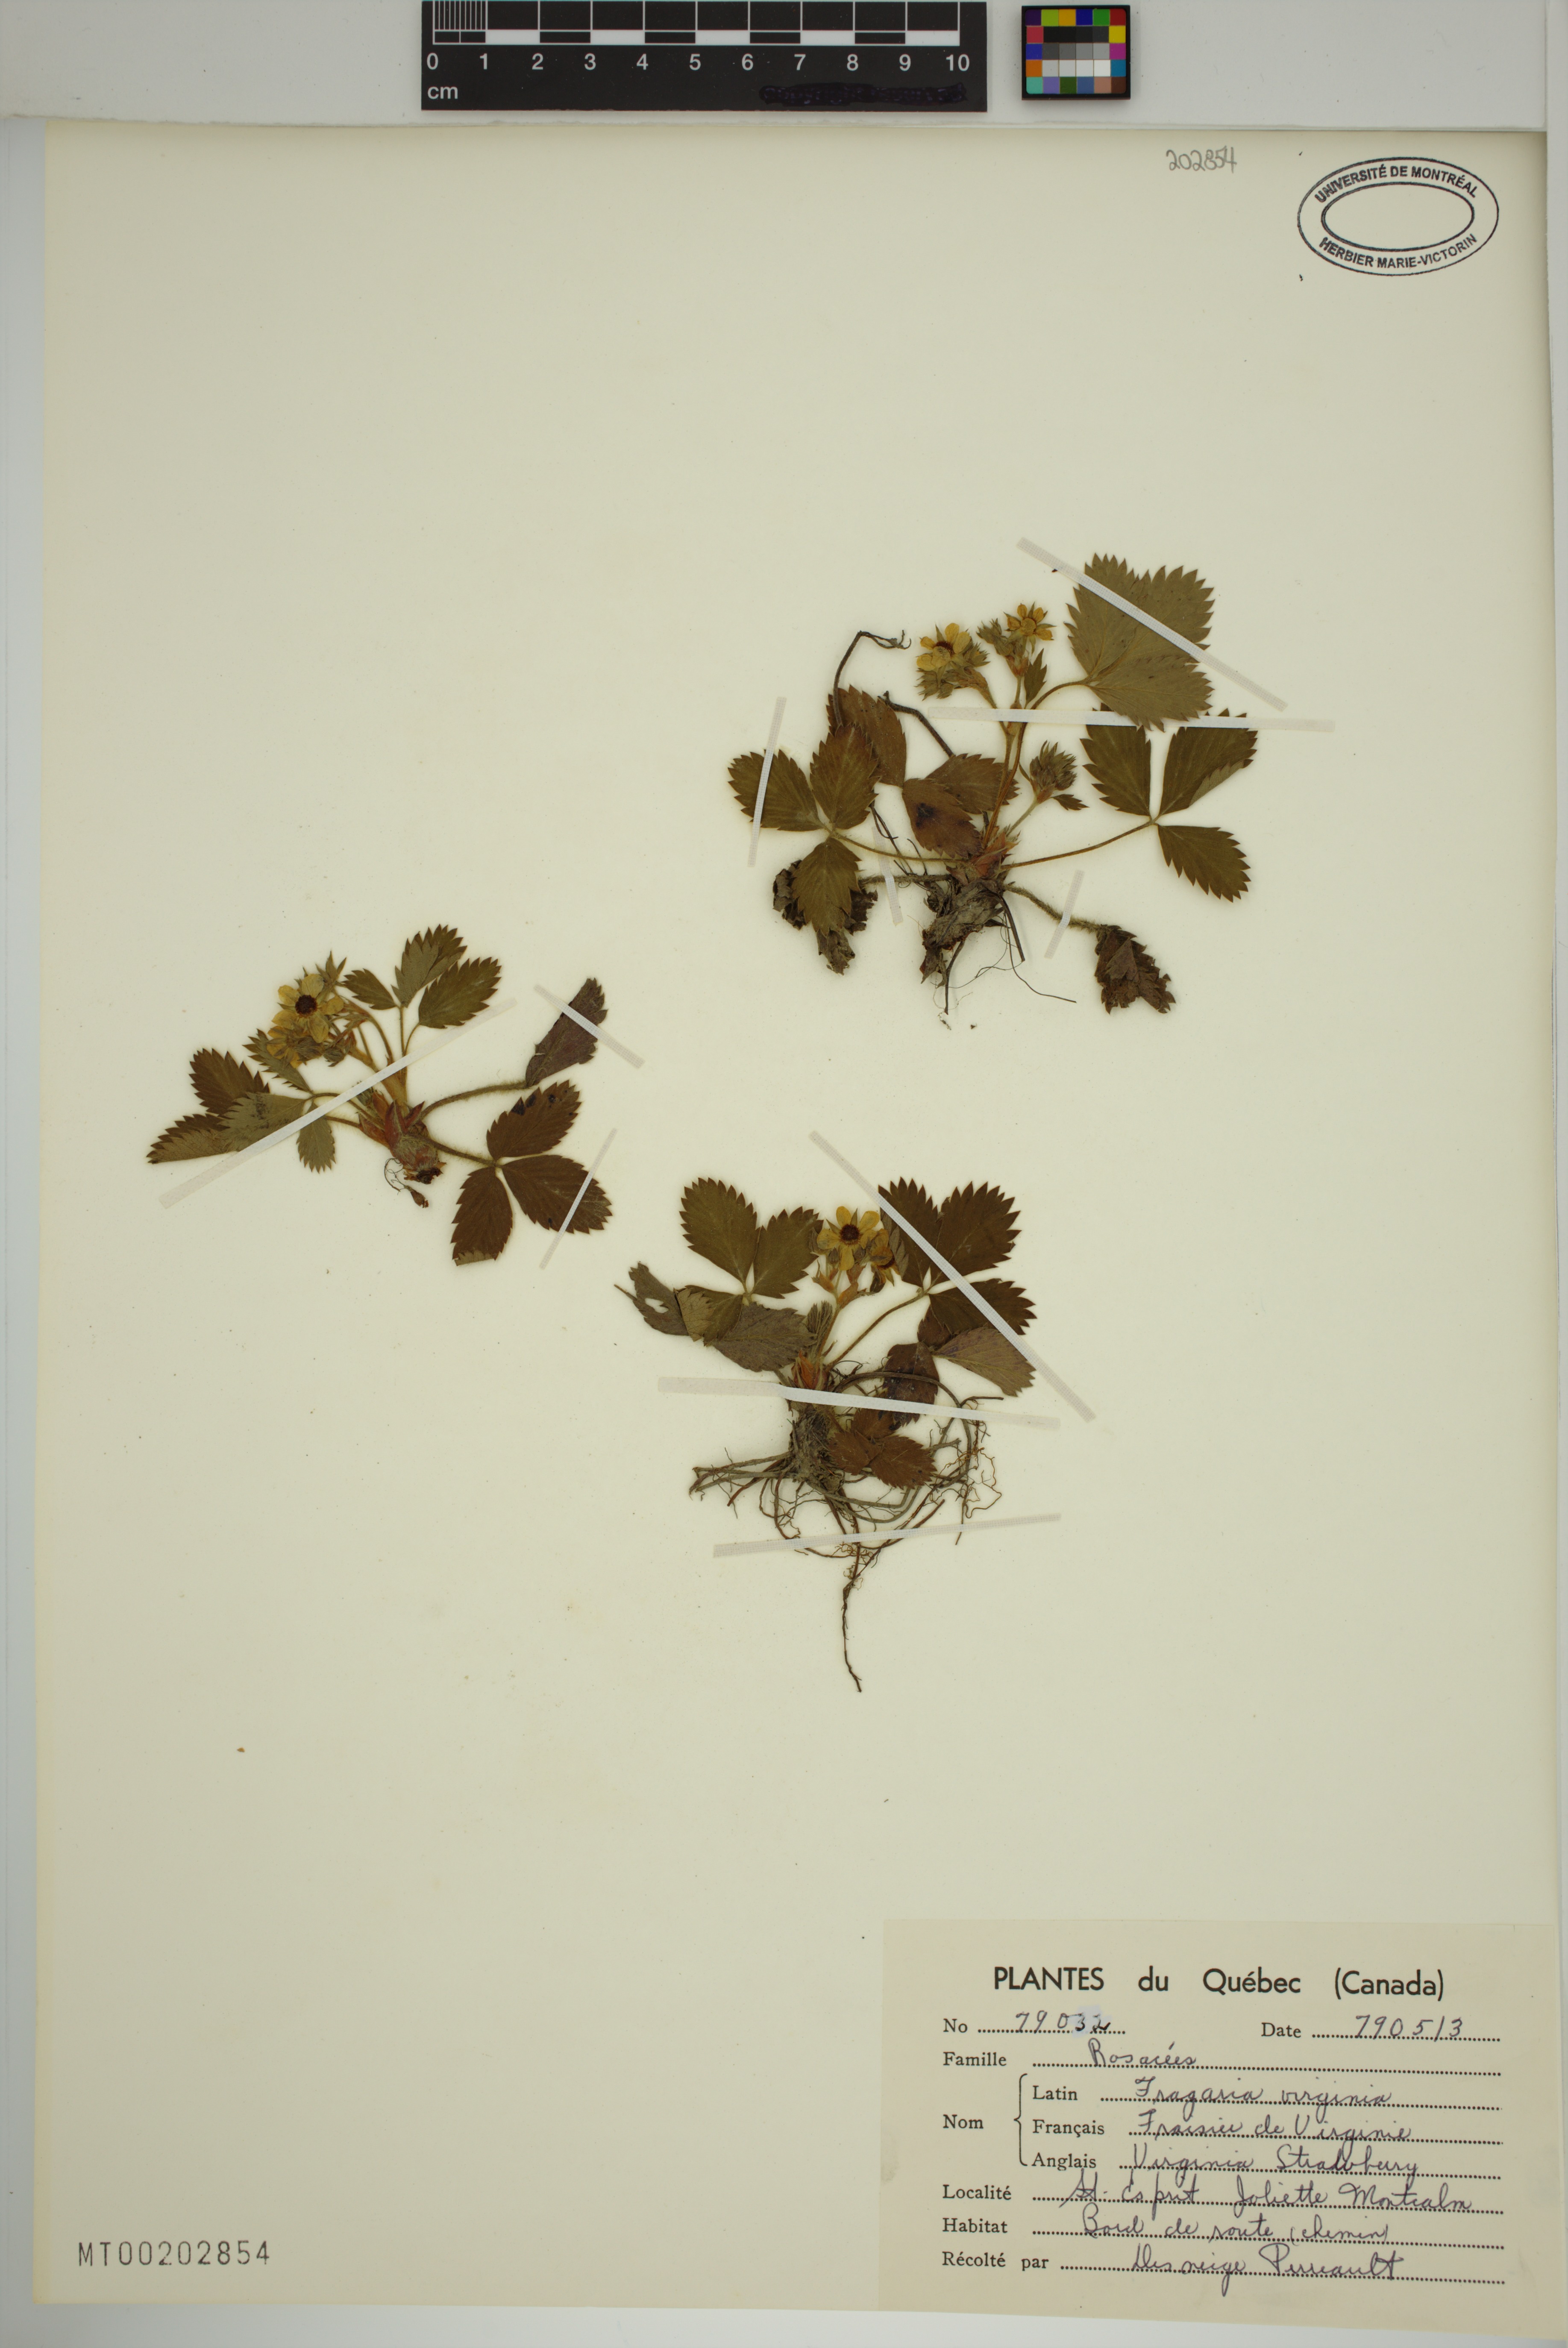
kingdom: Plantae
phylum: Tracheophyta
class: Magnoliopsida
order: Rosales
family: Rosaceae
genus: Fragaria
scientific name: Fragaria virginiana
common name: Thickleaved wild strawberry
